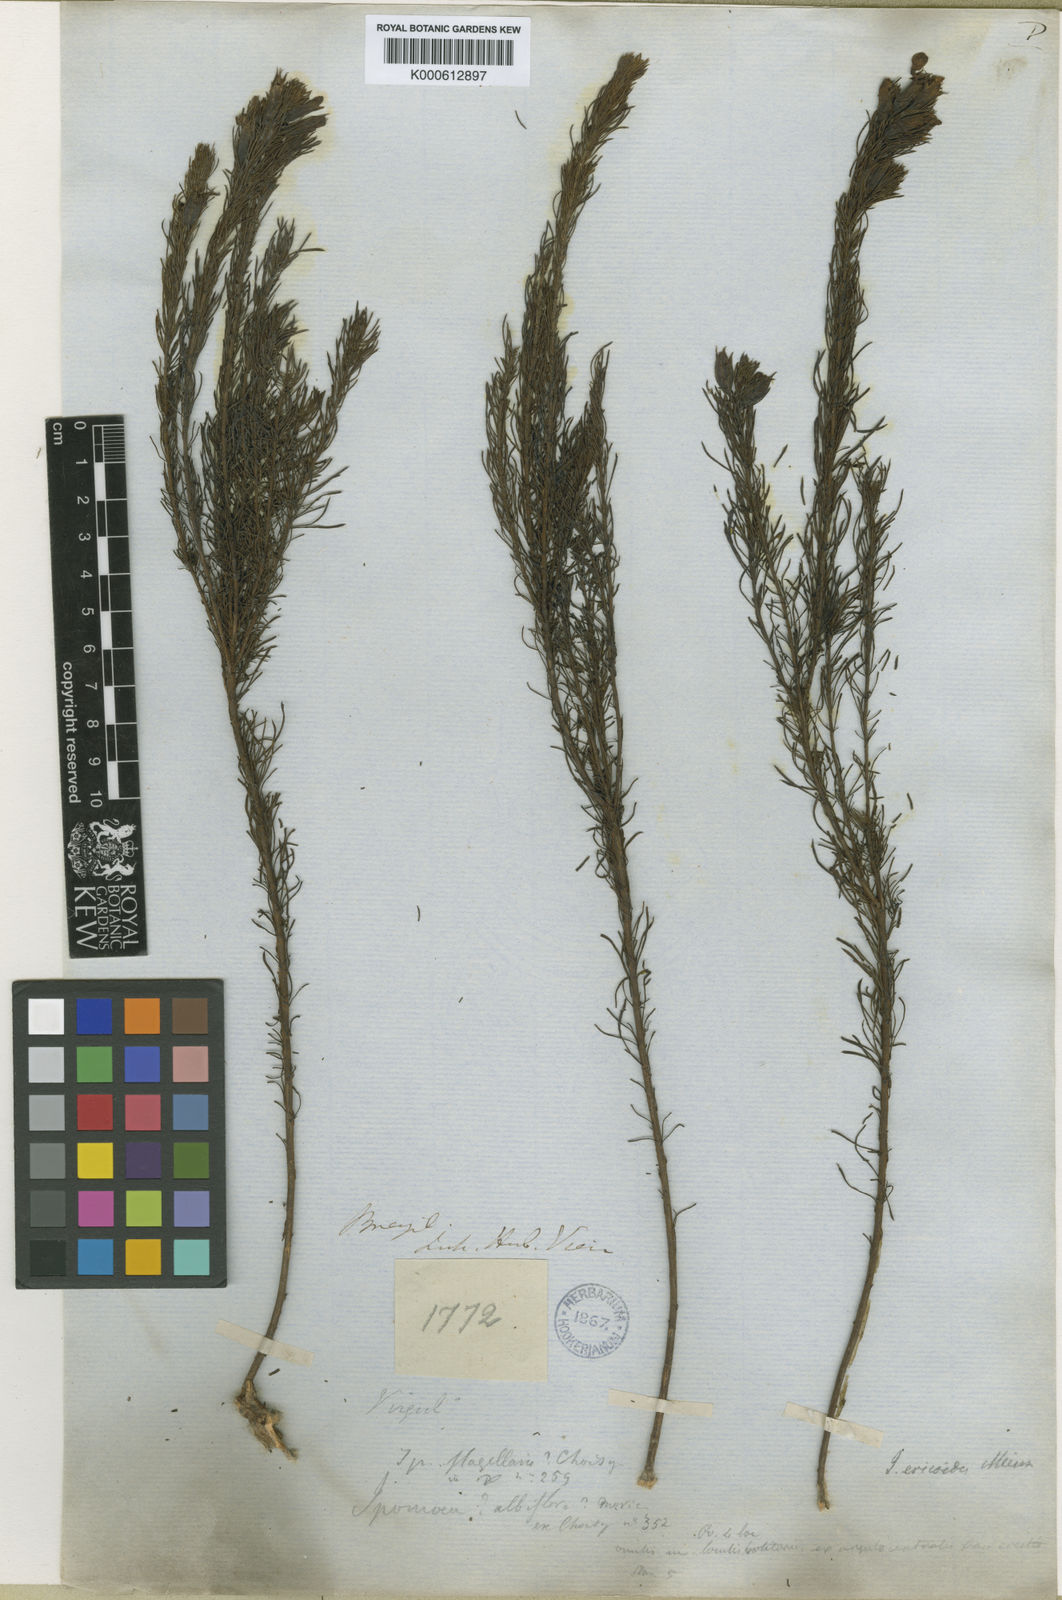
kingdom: Plantae
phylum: Tracheophyta
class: Magnoliopsida
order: Solanales
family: Convolvulaceae
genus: Distimake
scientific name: Distimake ericoides
